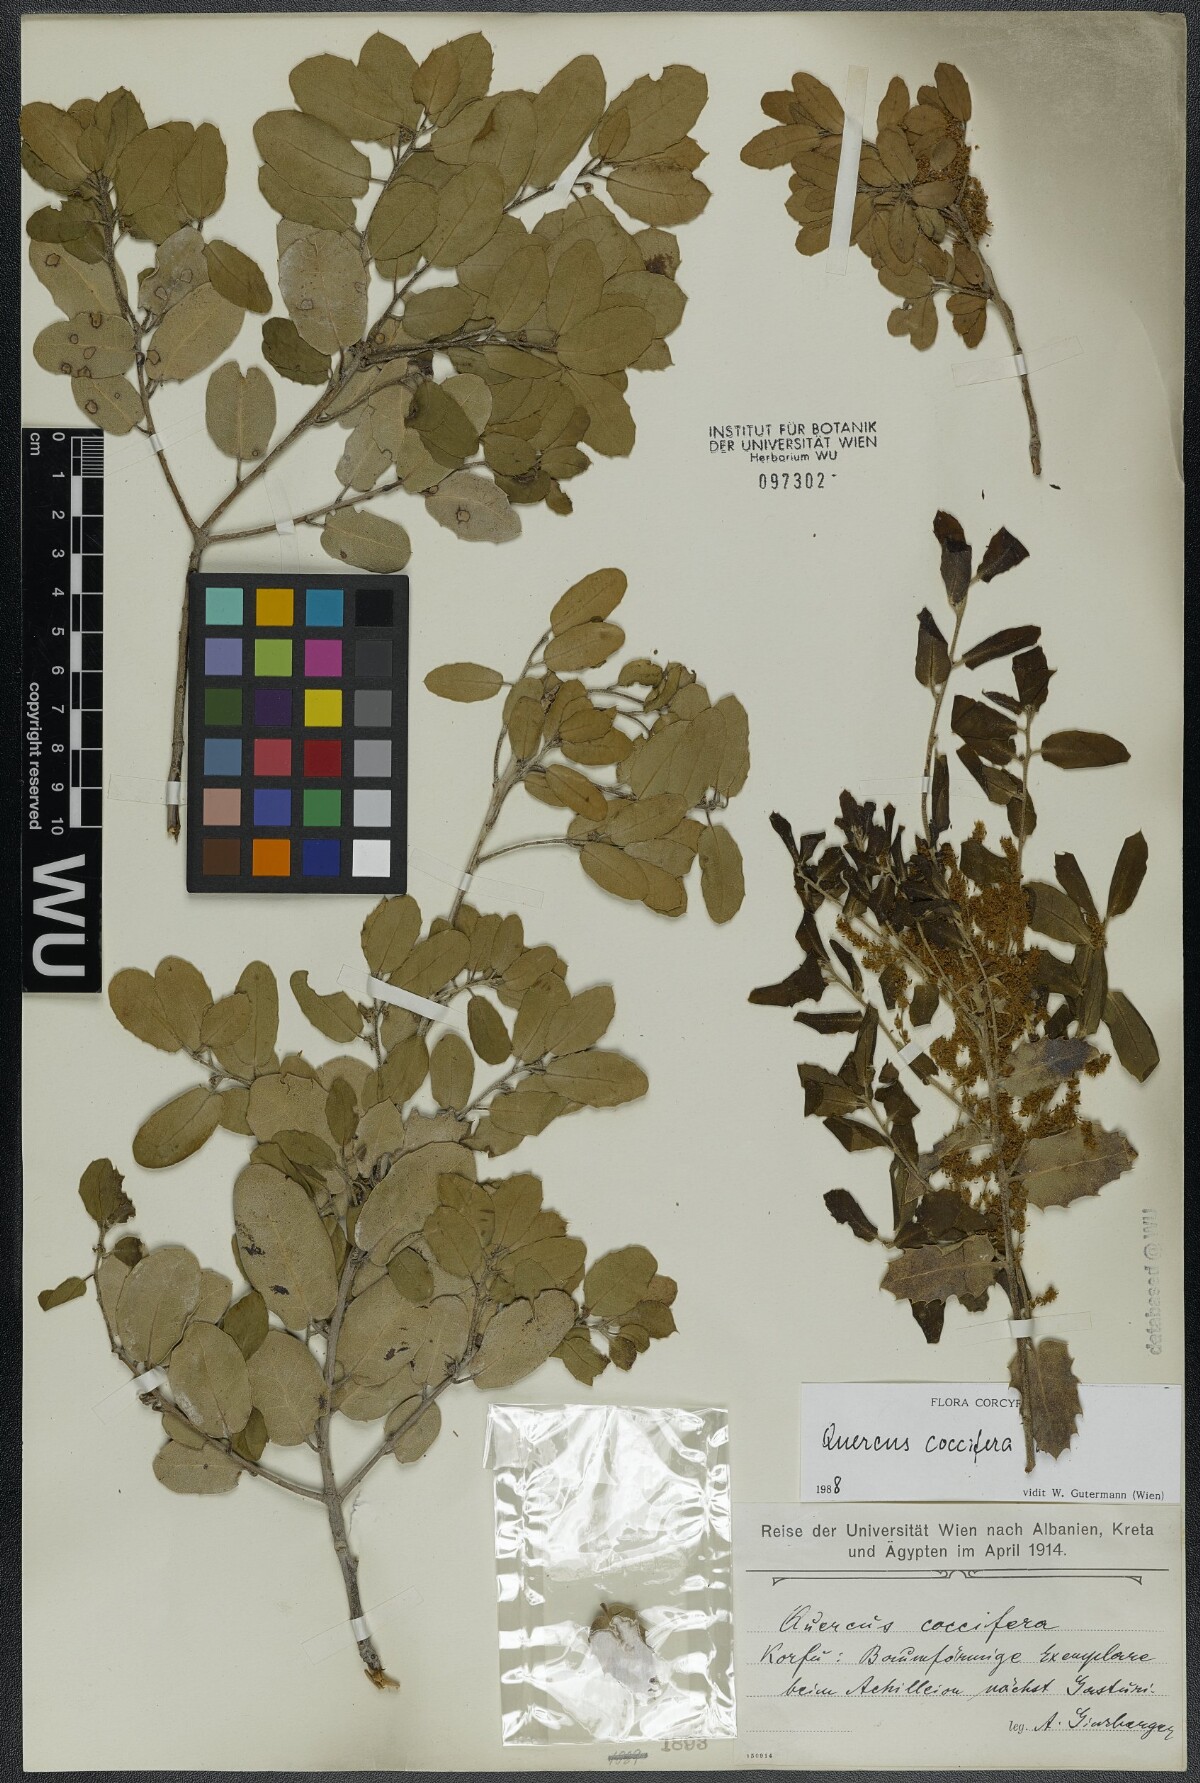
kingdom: Plantae
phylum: Tracheophyta
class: Magnoliopsida
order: Fagales
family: Fagaceae
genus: Quercus
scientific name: Quercus coccifera
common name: Kermes oak
